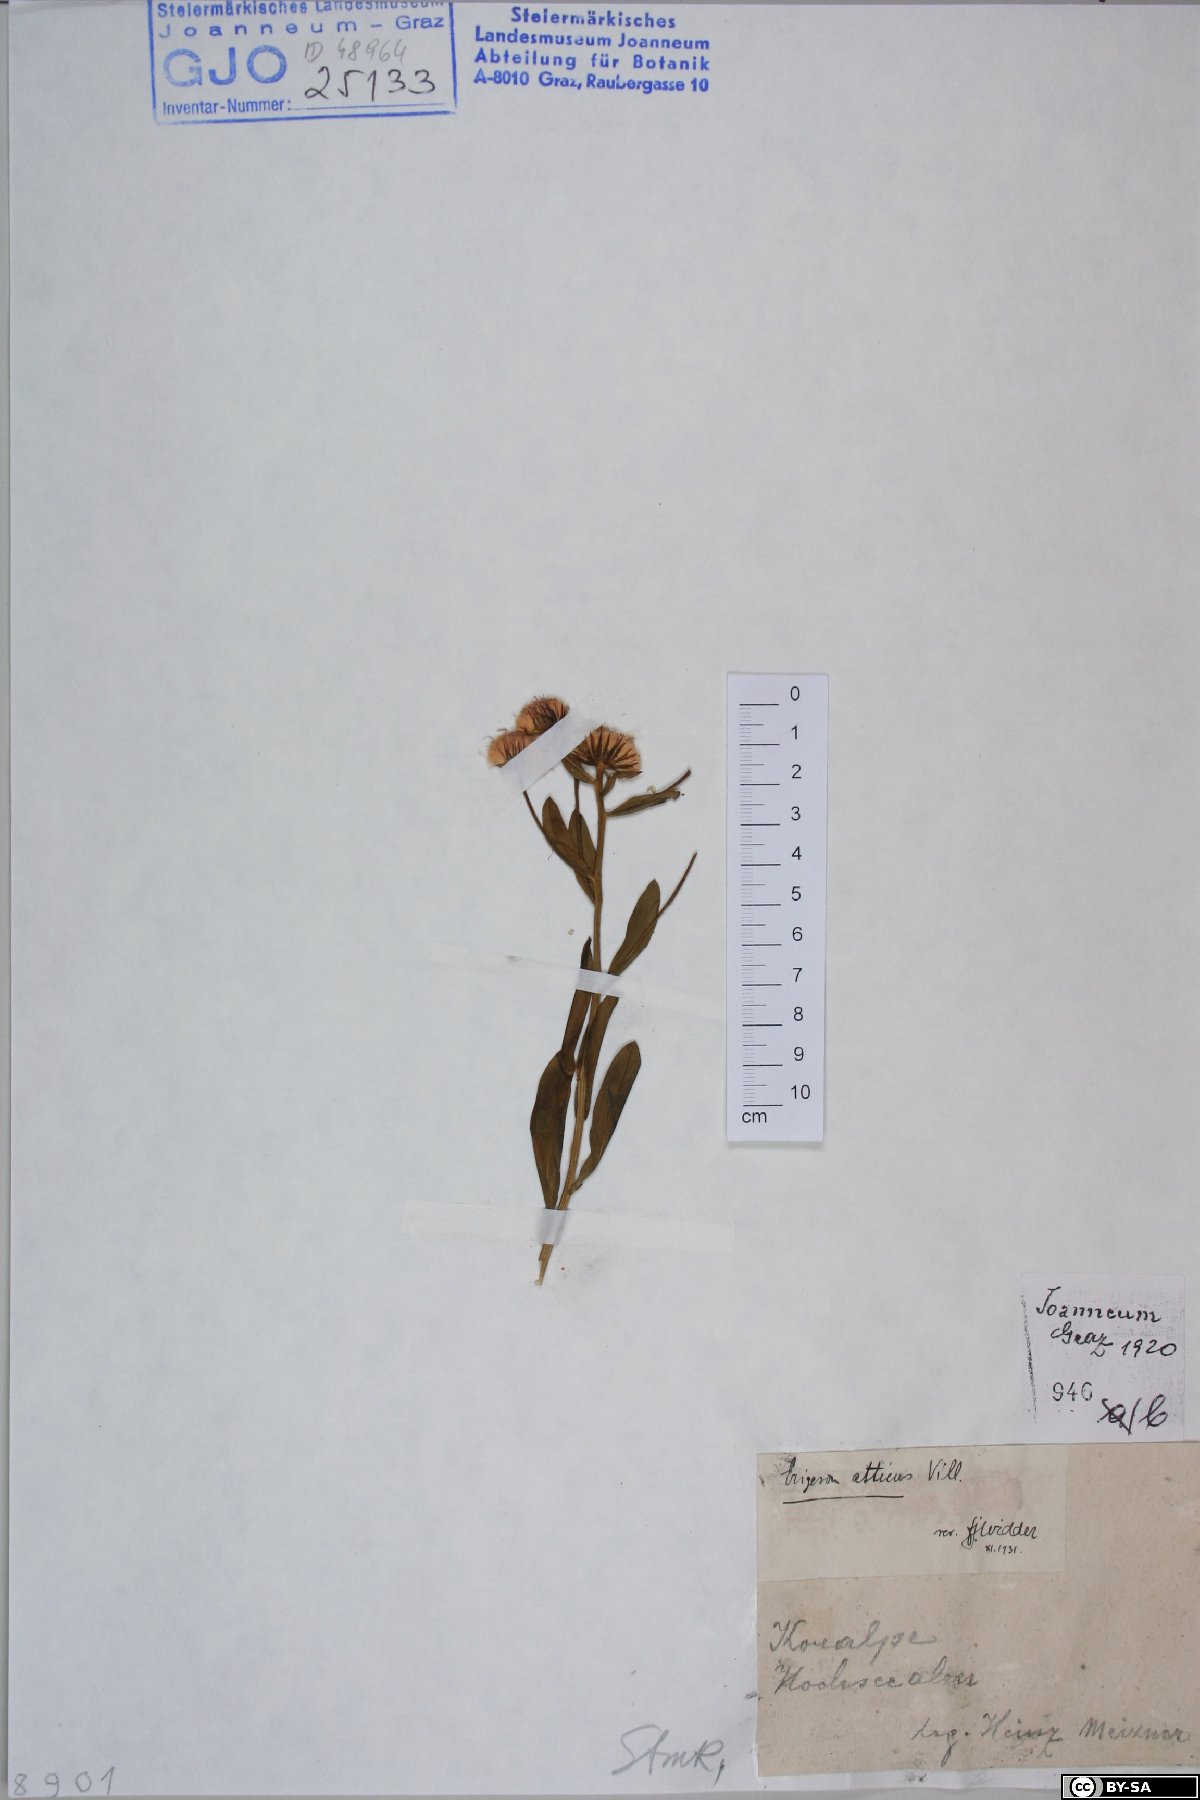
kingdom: Plantae
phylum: Tracheophyta
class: Magnoliopsida
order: Asterales
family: Asteraceae
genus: Erigeron
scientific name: Erigeron atticus
